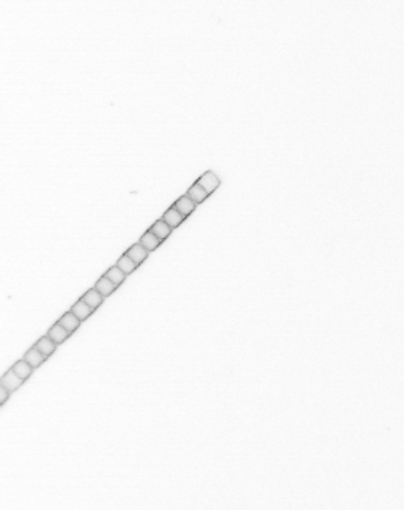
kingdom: Chromista
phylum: Ochrophyta
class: Bacillariophyceae
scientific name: Bacillariophyceae
